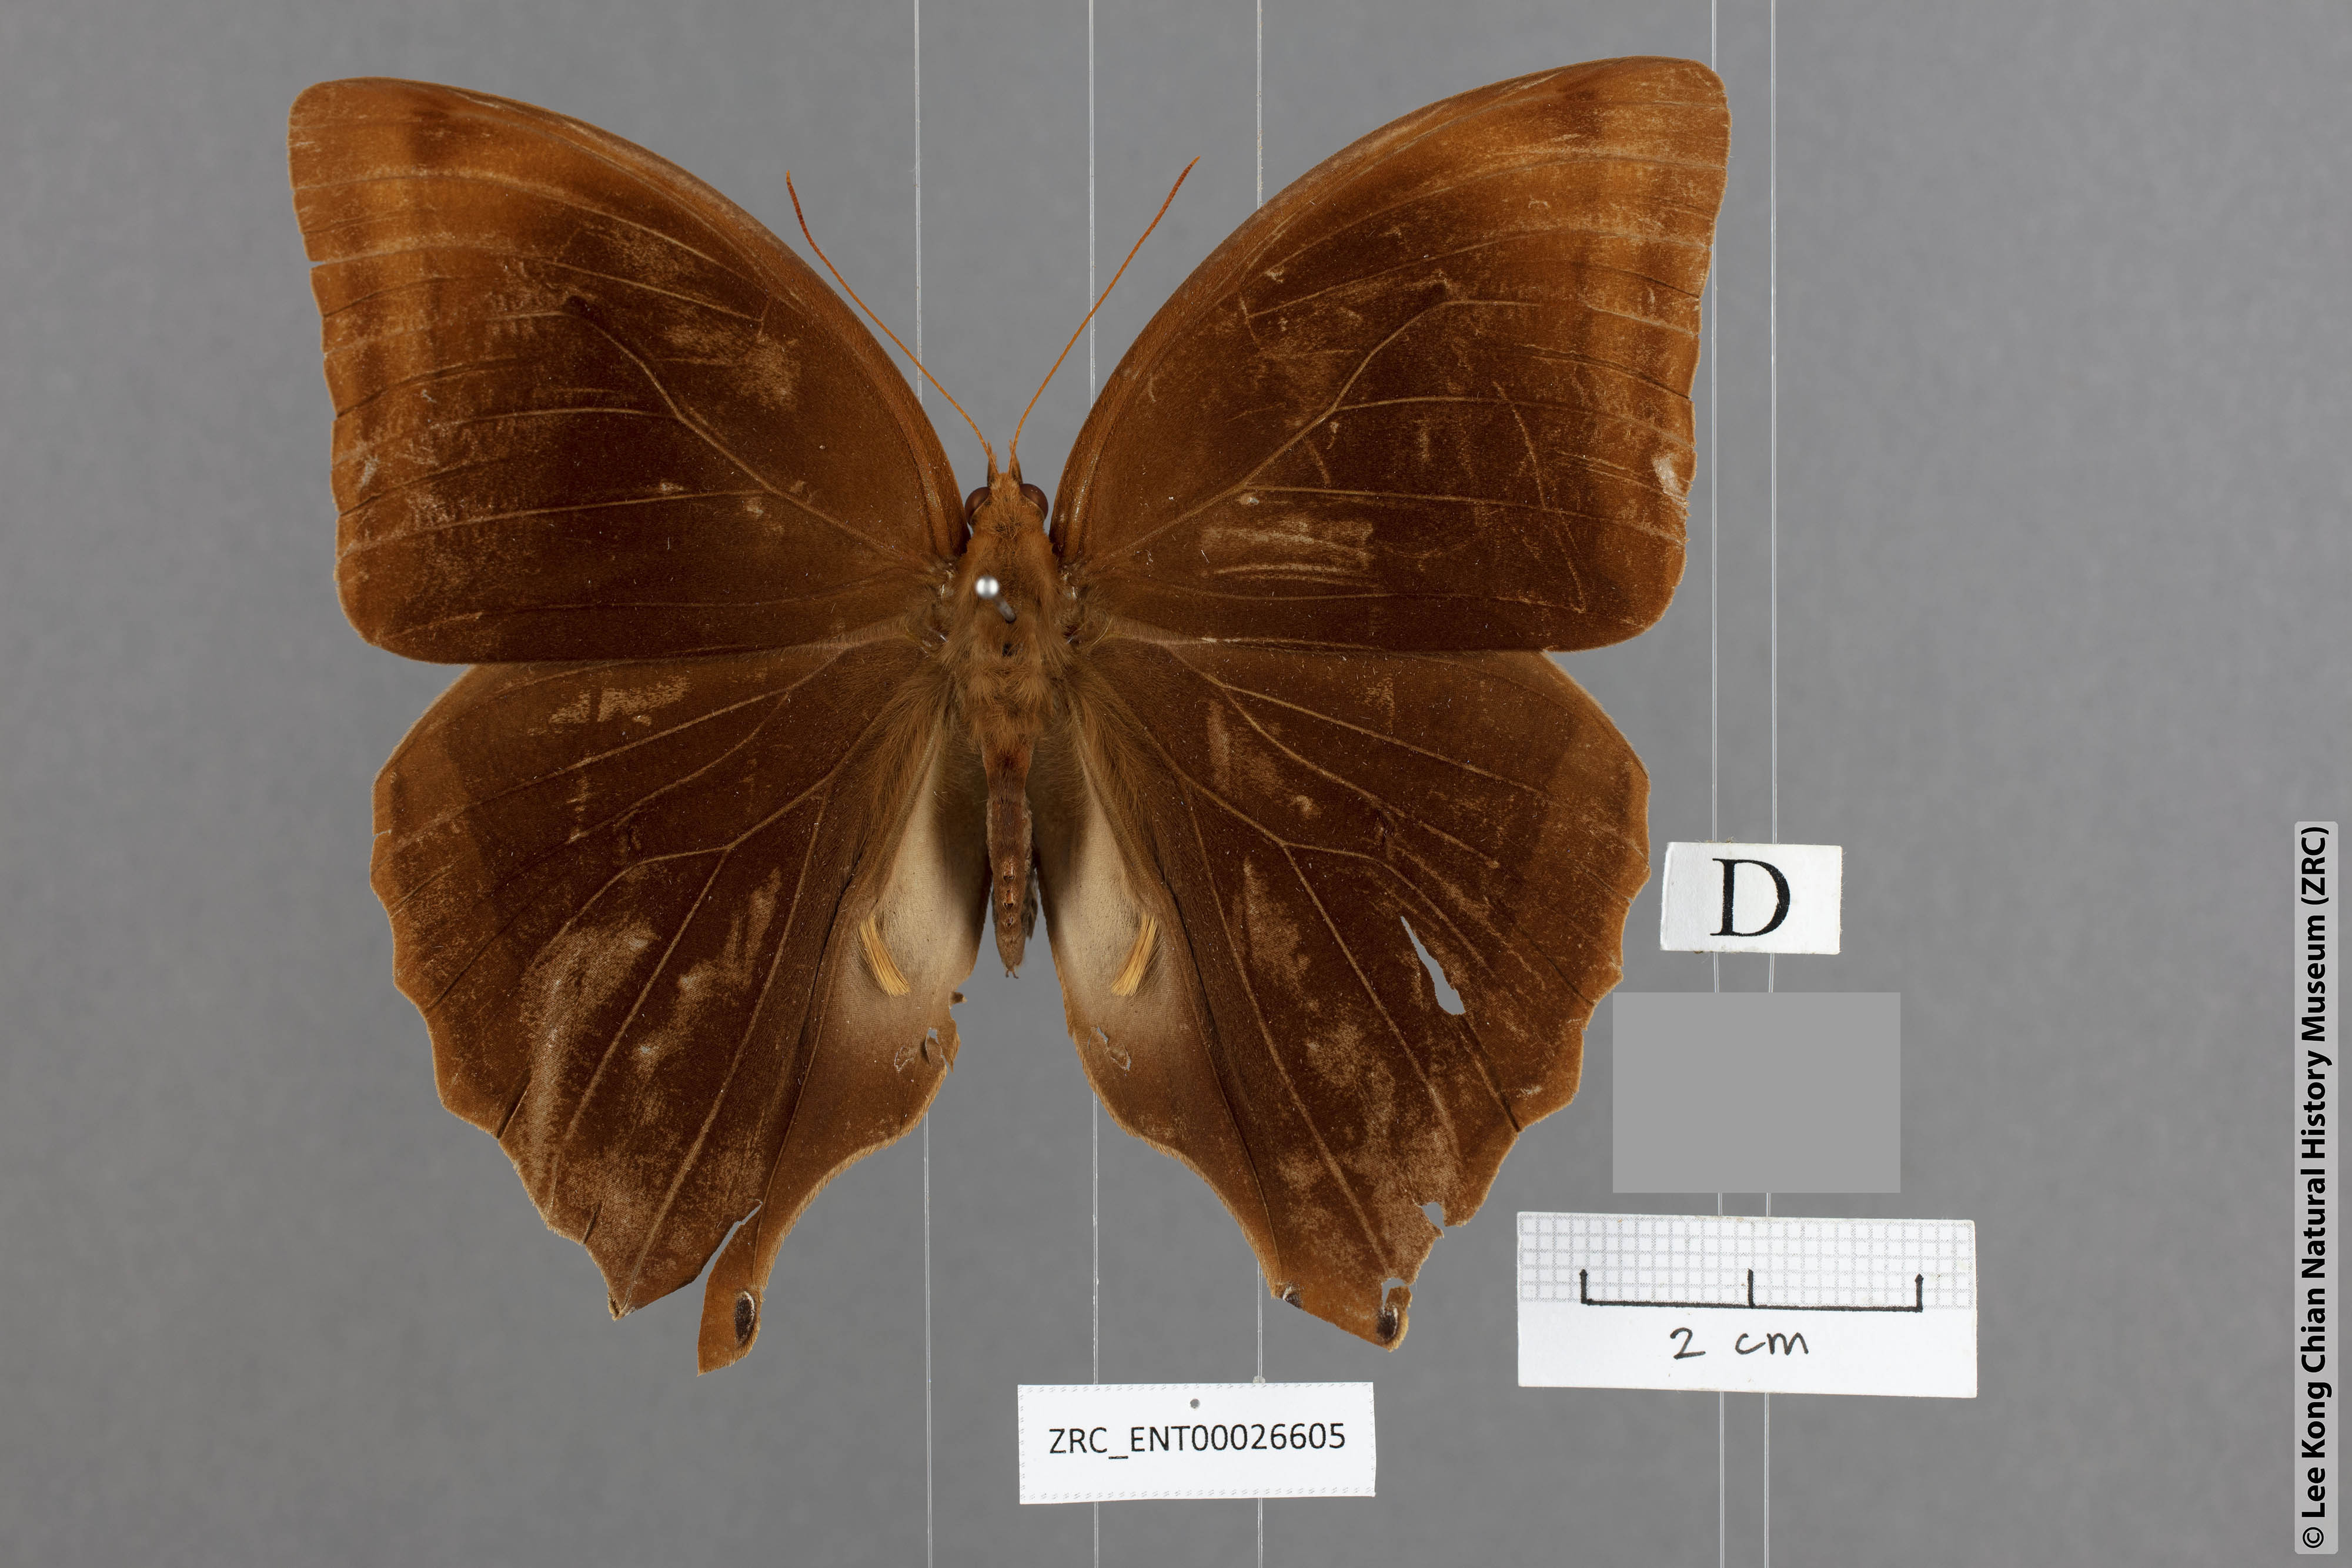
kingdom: Animalia
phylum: Arthropoda
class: Insecta
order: Lepidoptera
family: Nymphalidae
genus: Amathusia
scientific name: Amathusia friderici
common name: Bicolor-haired palm king
